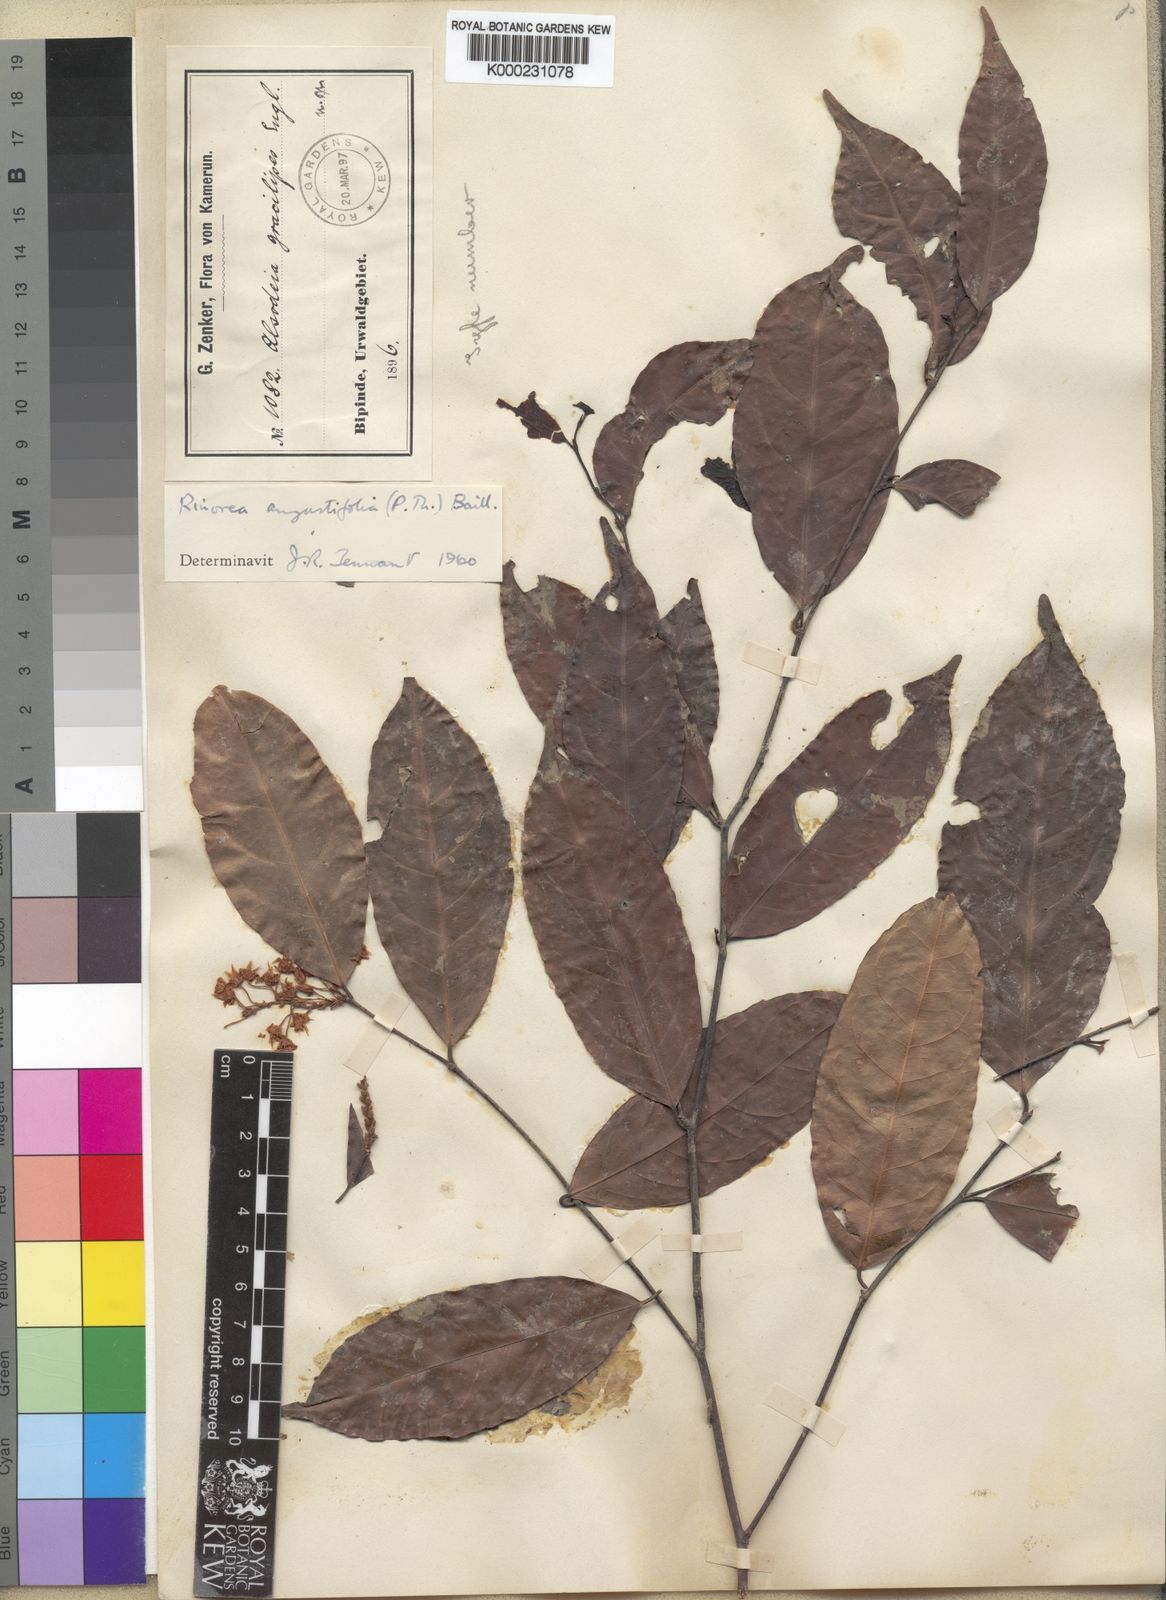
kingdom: Plantae
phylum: Tracheophyta
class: Magnoliopsida
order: Malpighiales
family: Violaceae
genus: Rinorea
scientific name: Rinorea angustifolia
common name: White violet-bush
